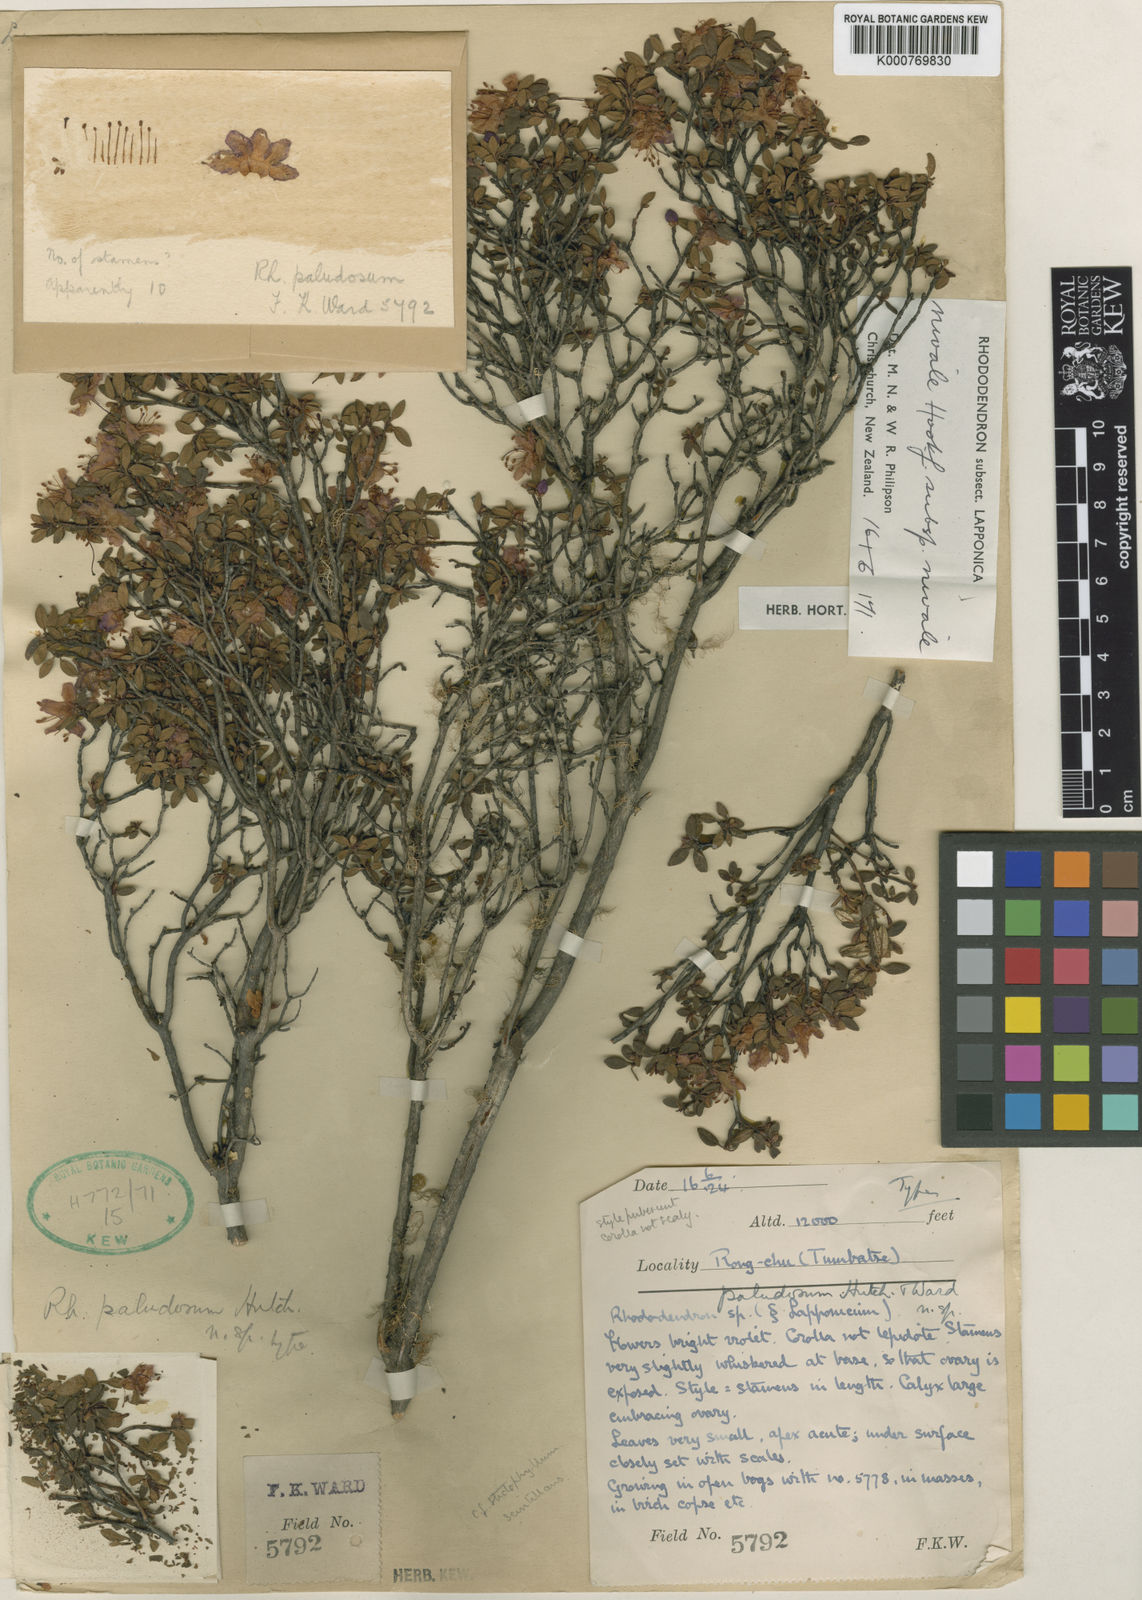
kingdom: Plantae
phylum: Tracheophyta
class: Magnoliopsida
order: Ericales
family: Ericaceae
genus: Rhododendron
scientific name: Rhododendron nivale
